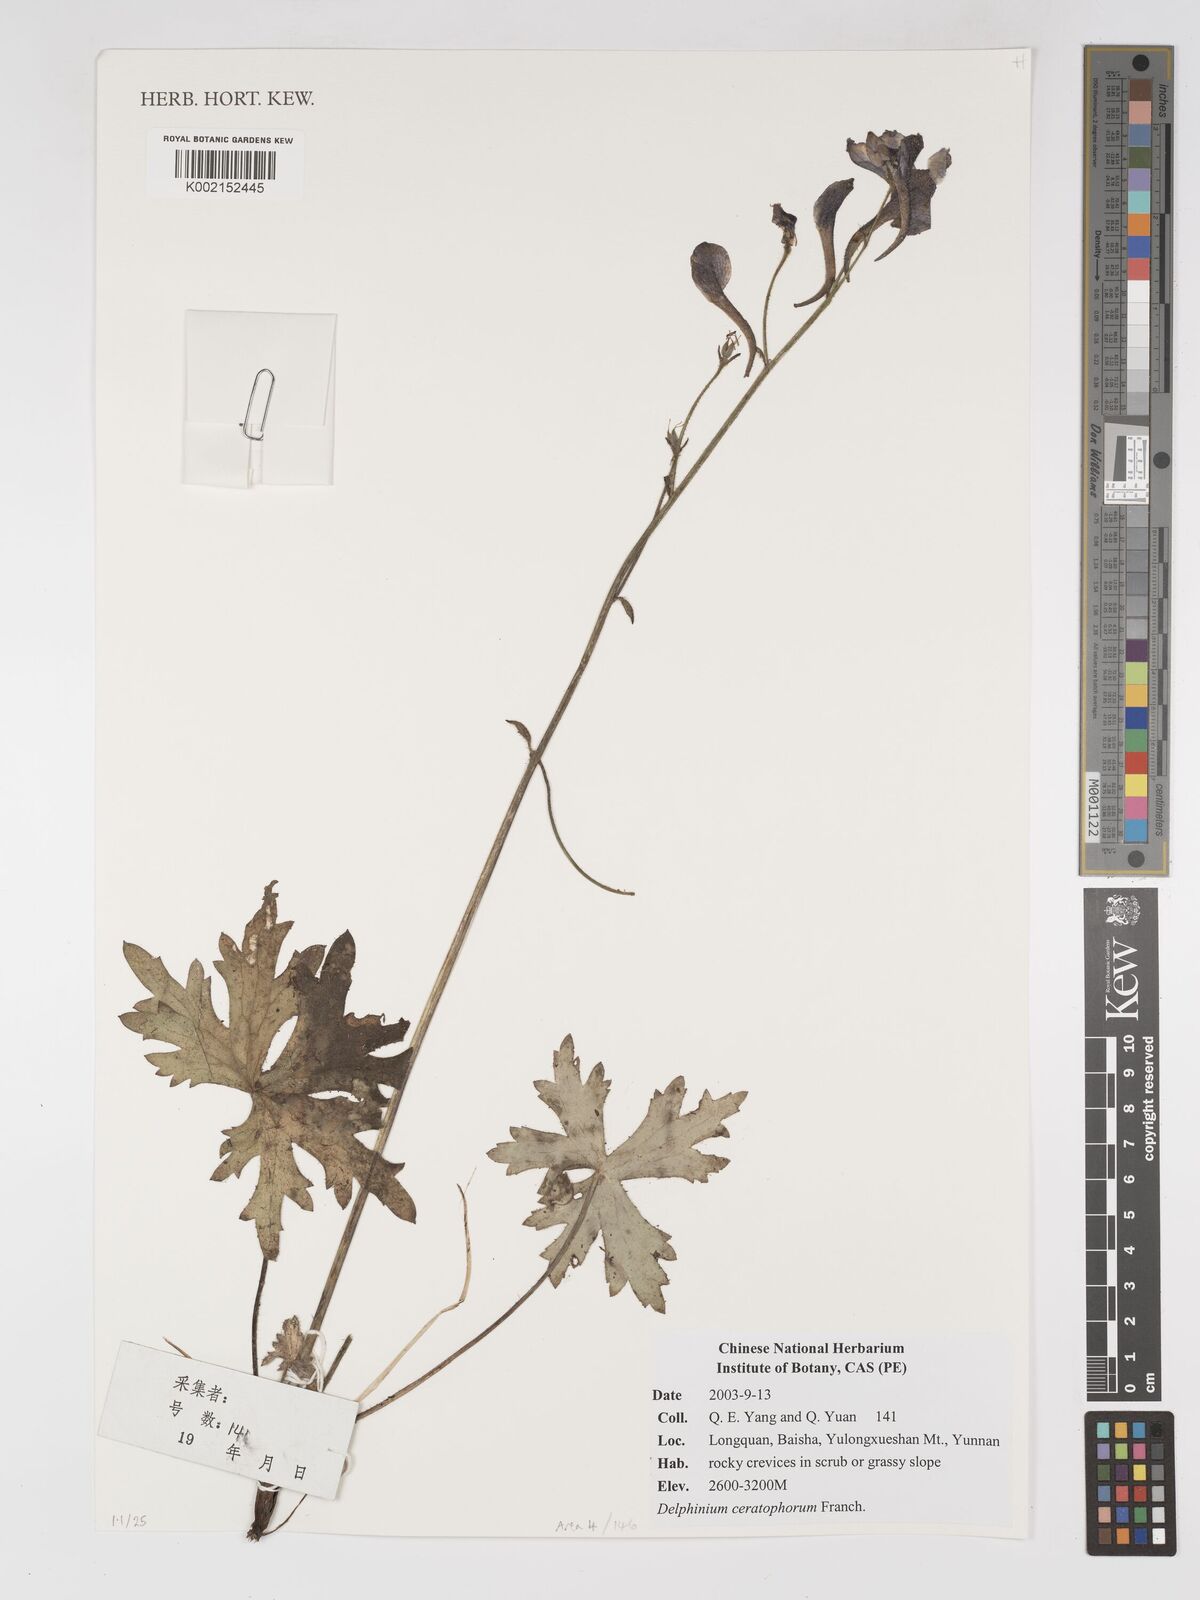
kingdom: Plantae
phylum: Tracheophyta
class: Magnoliopsida
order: Ranunculales
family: Ranunculaceae
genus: Delphinium
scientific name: Delphinium ceratophorum
